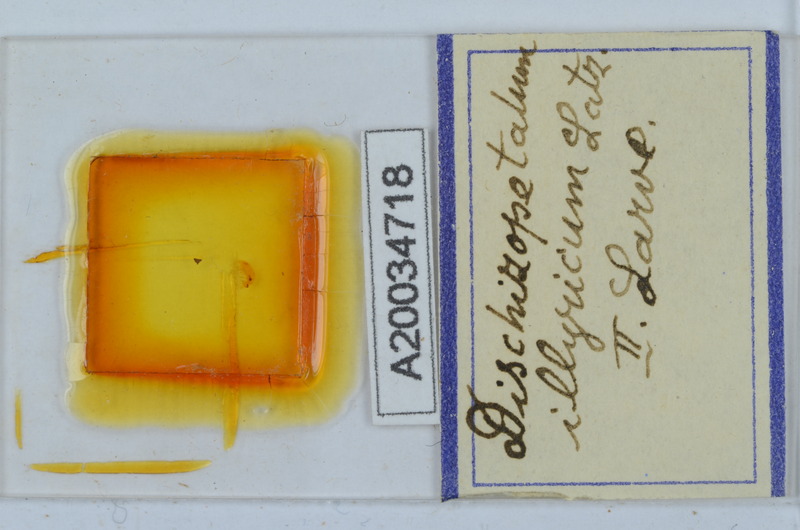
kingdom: Animalia
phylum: Arthropoda
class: Diplopoda
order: Callipodida
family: Schizopetalidae
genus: Callipodella
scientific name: Callipodella
